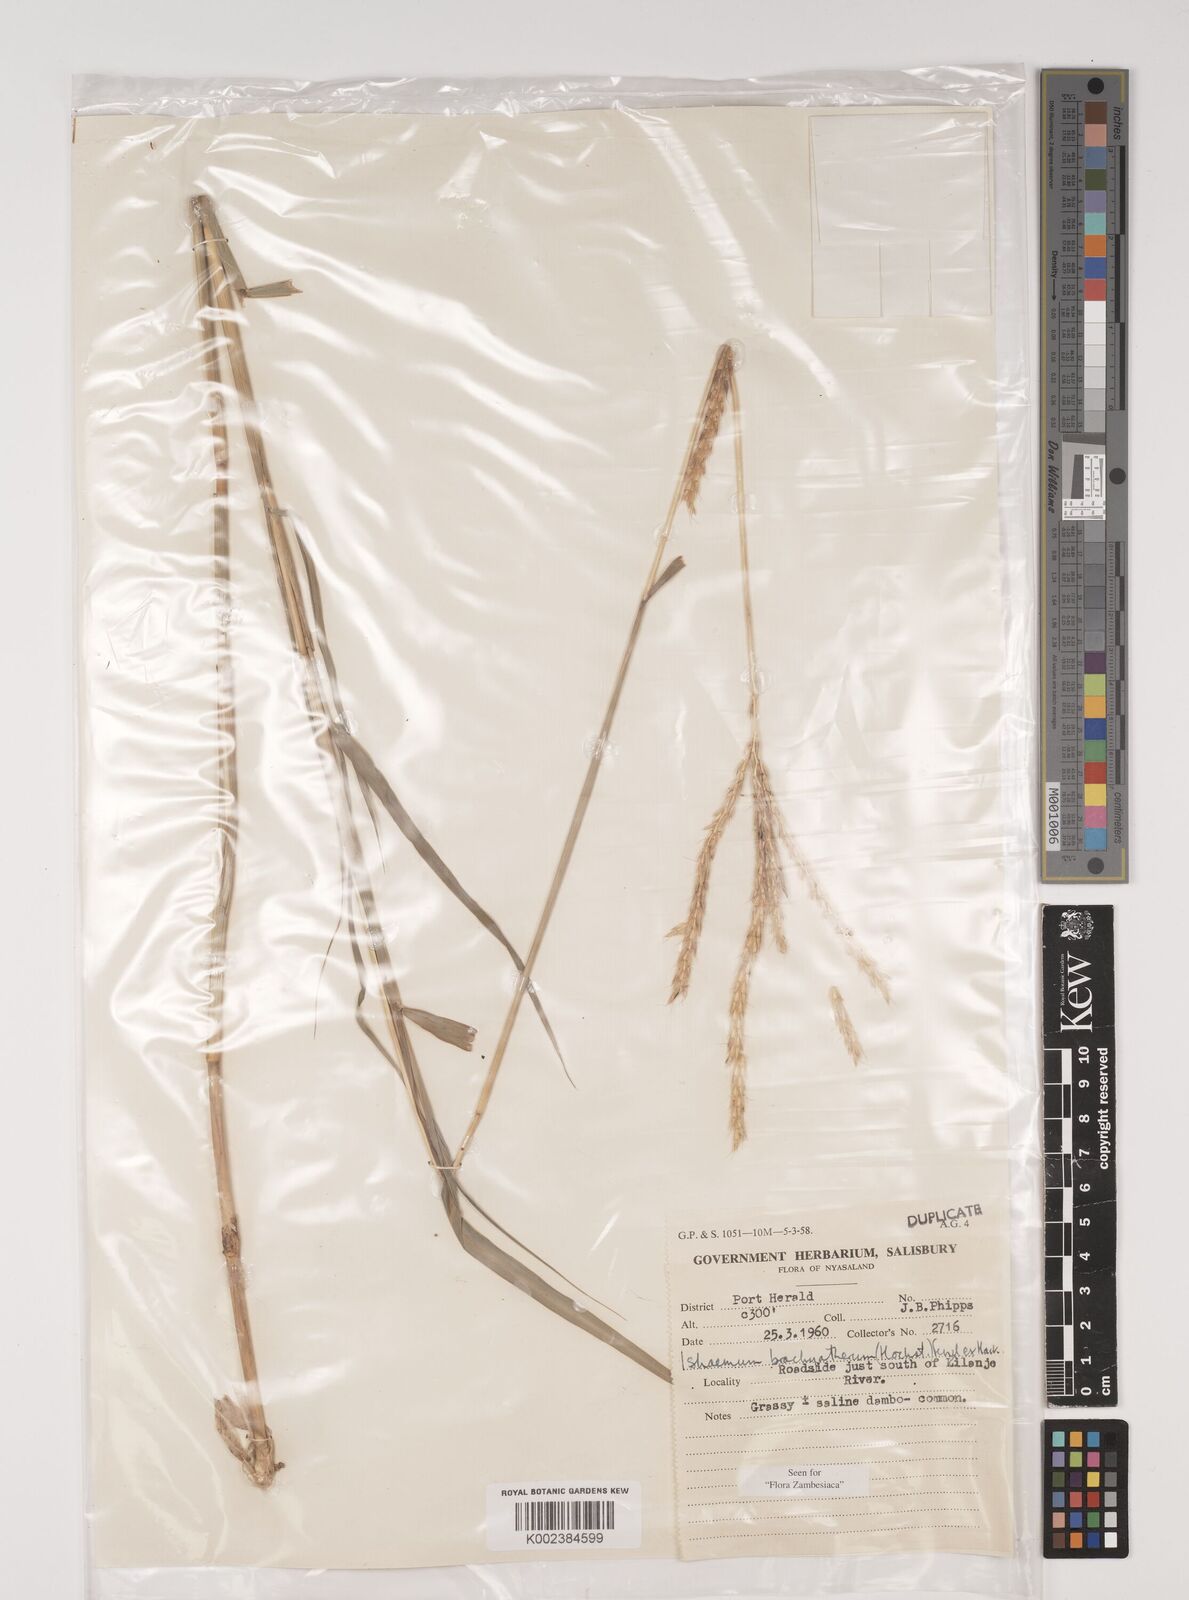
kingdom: Plantae
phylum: Tracheophyta
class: Liliopsida
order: Poales
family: Poaceae
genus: Ischaemum
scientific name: Ischaemum afrum
